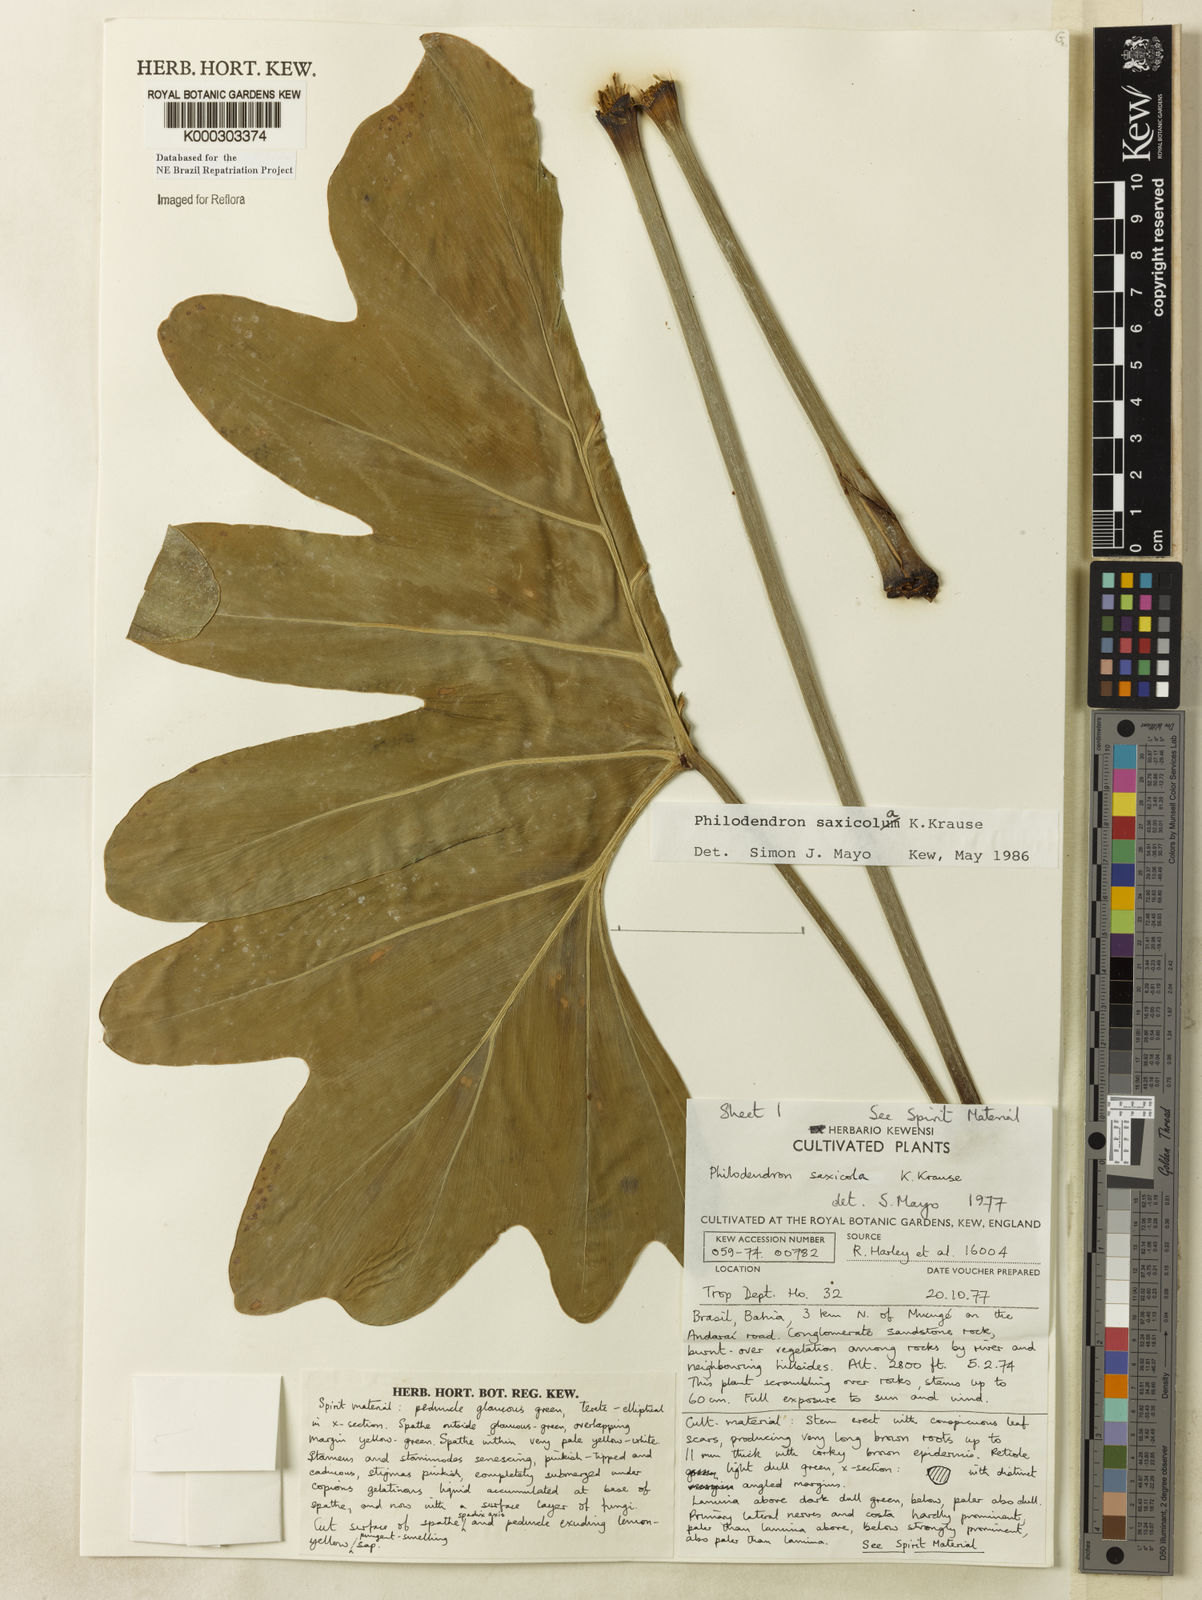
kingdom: Plantae
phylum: Tracheophyta
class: Liliopsida
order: Alismatales
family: Araceae
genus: Thaumatophyllum
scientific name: Thaumatophyllum saxicola
